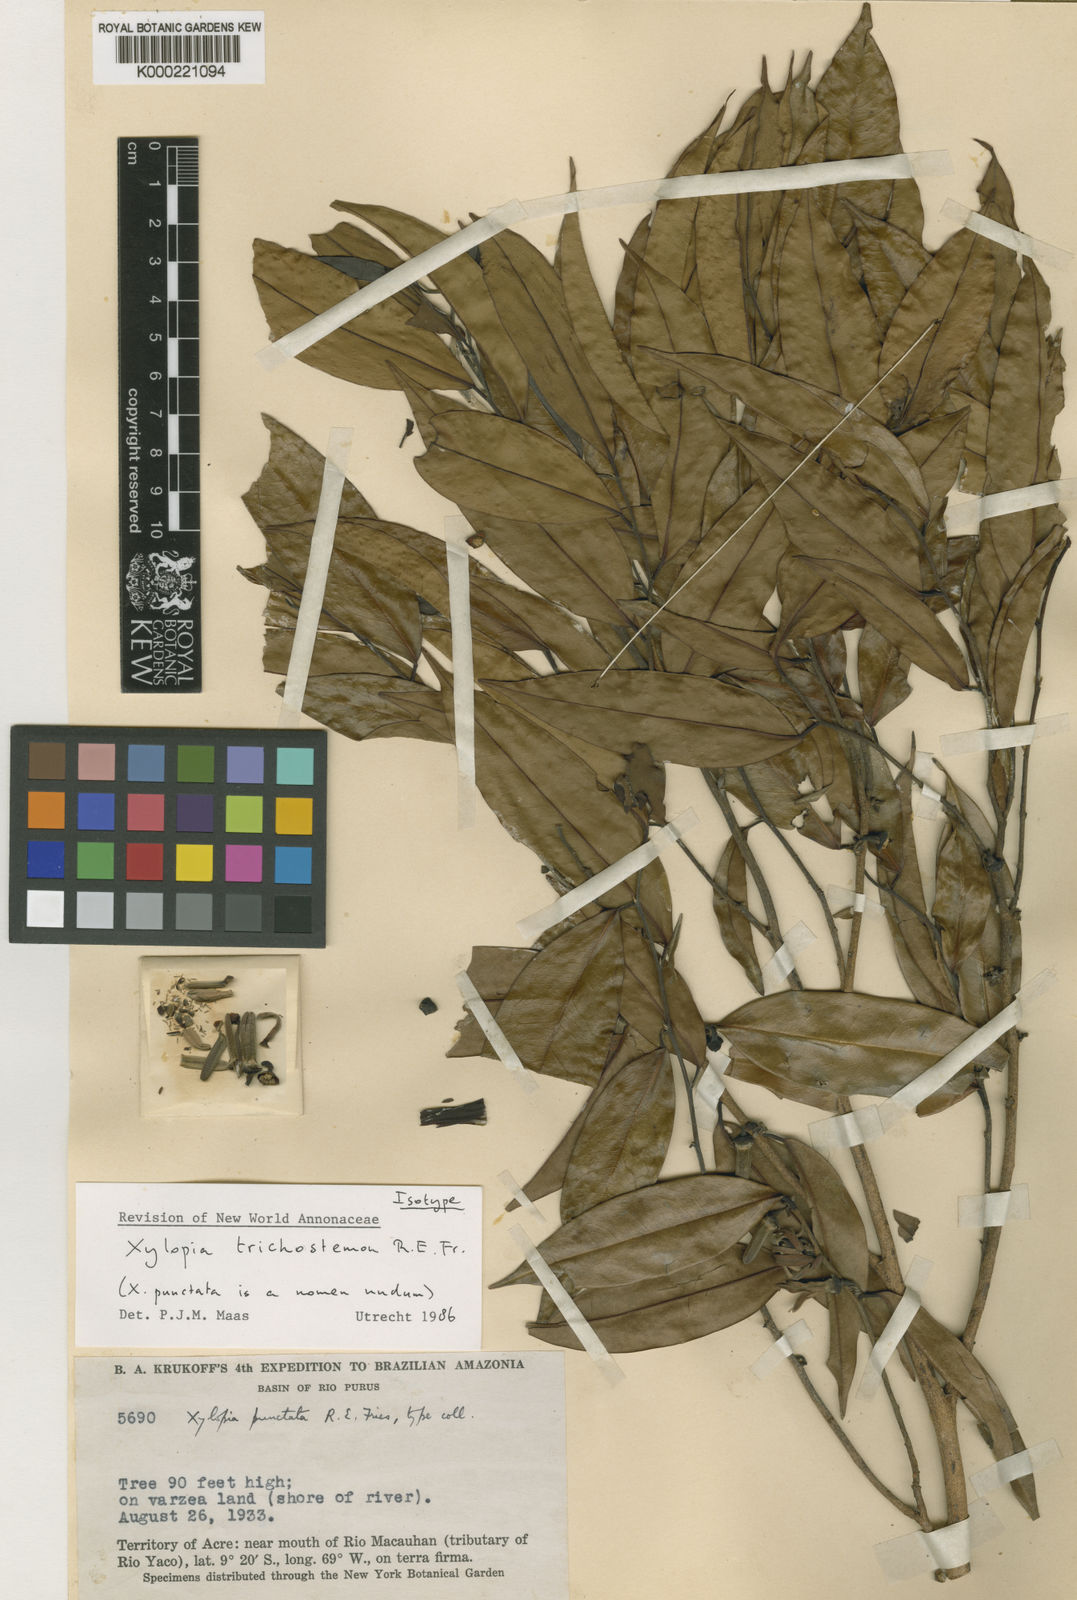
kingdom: Plantae
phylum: Tracheophyta
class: Magnoliopsida
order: Magnoliales
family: Annonaceae
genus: Xylopia
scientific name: Xylopia trichostemon
